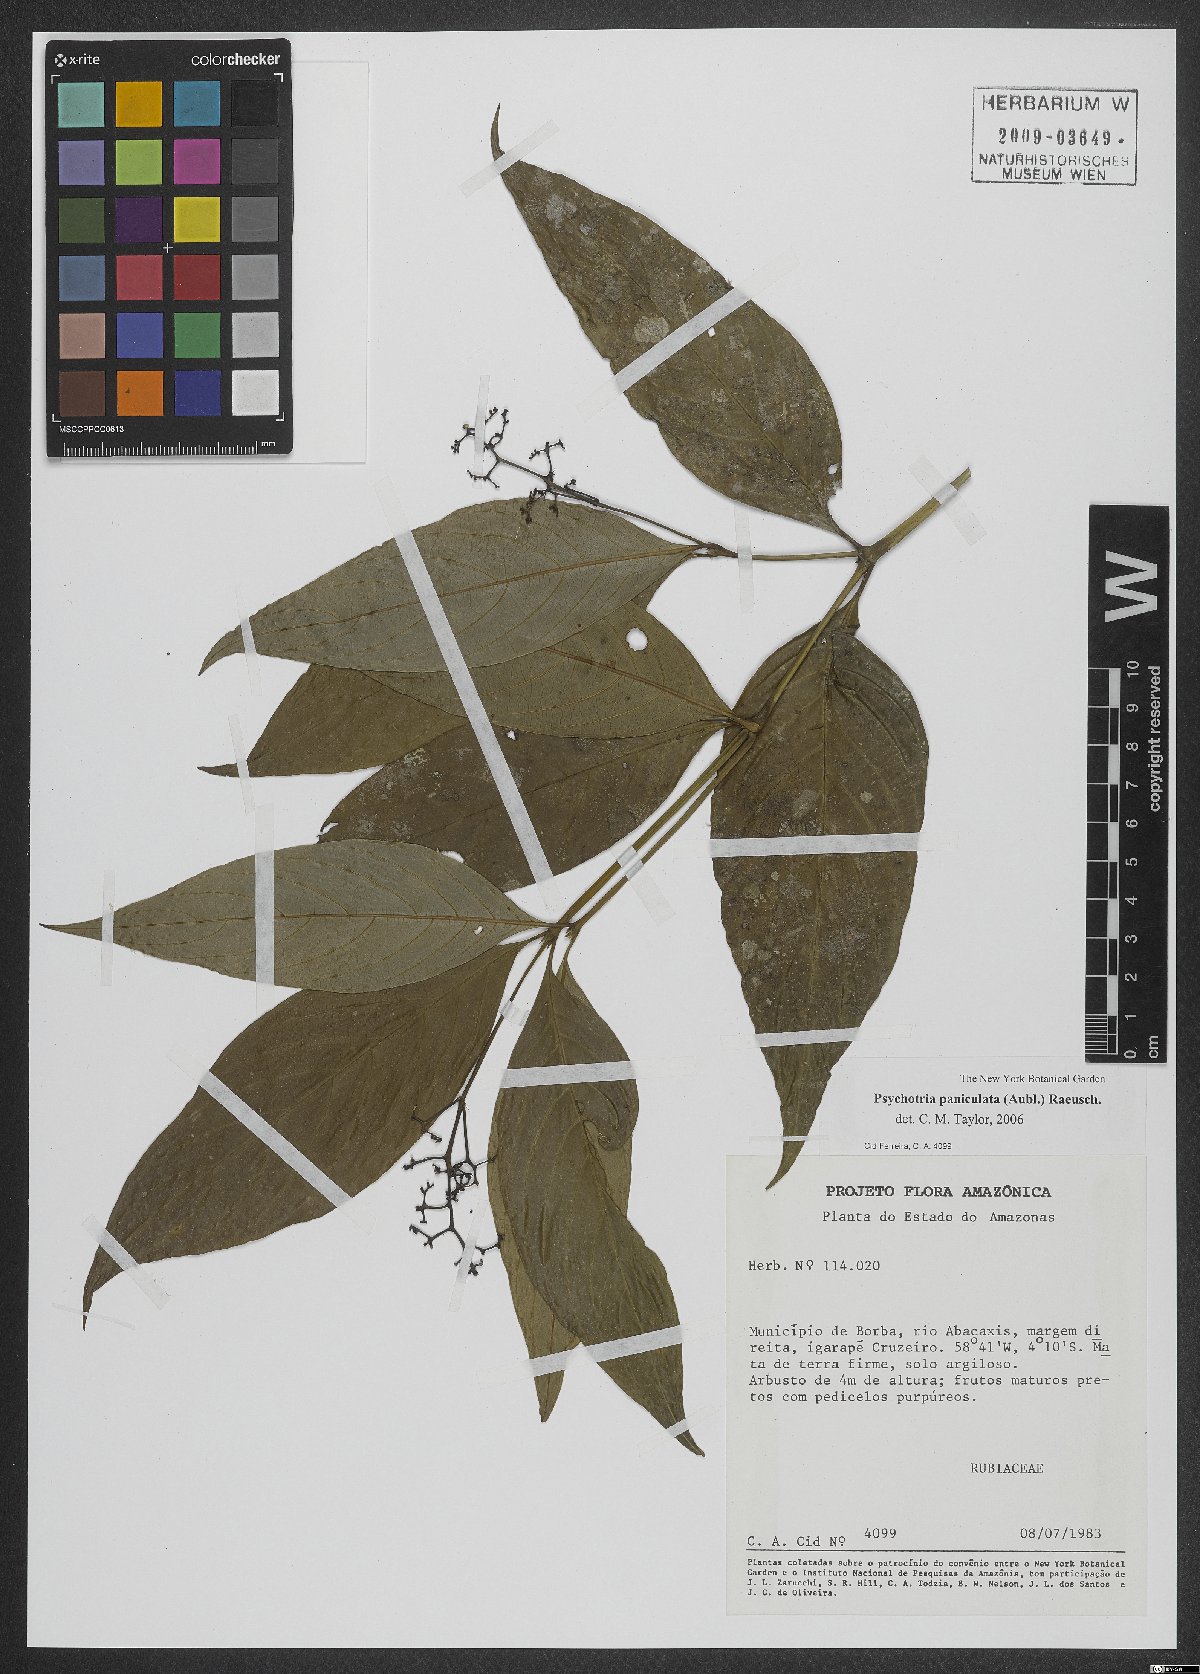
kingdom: Plantae
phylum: Tracheophyta
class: Magnoliopsida
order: Gentianales
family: Rubiaceae
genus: Palicourea
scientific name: Palicourea obliquinervia
